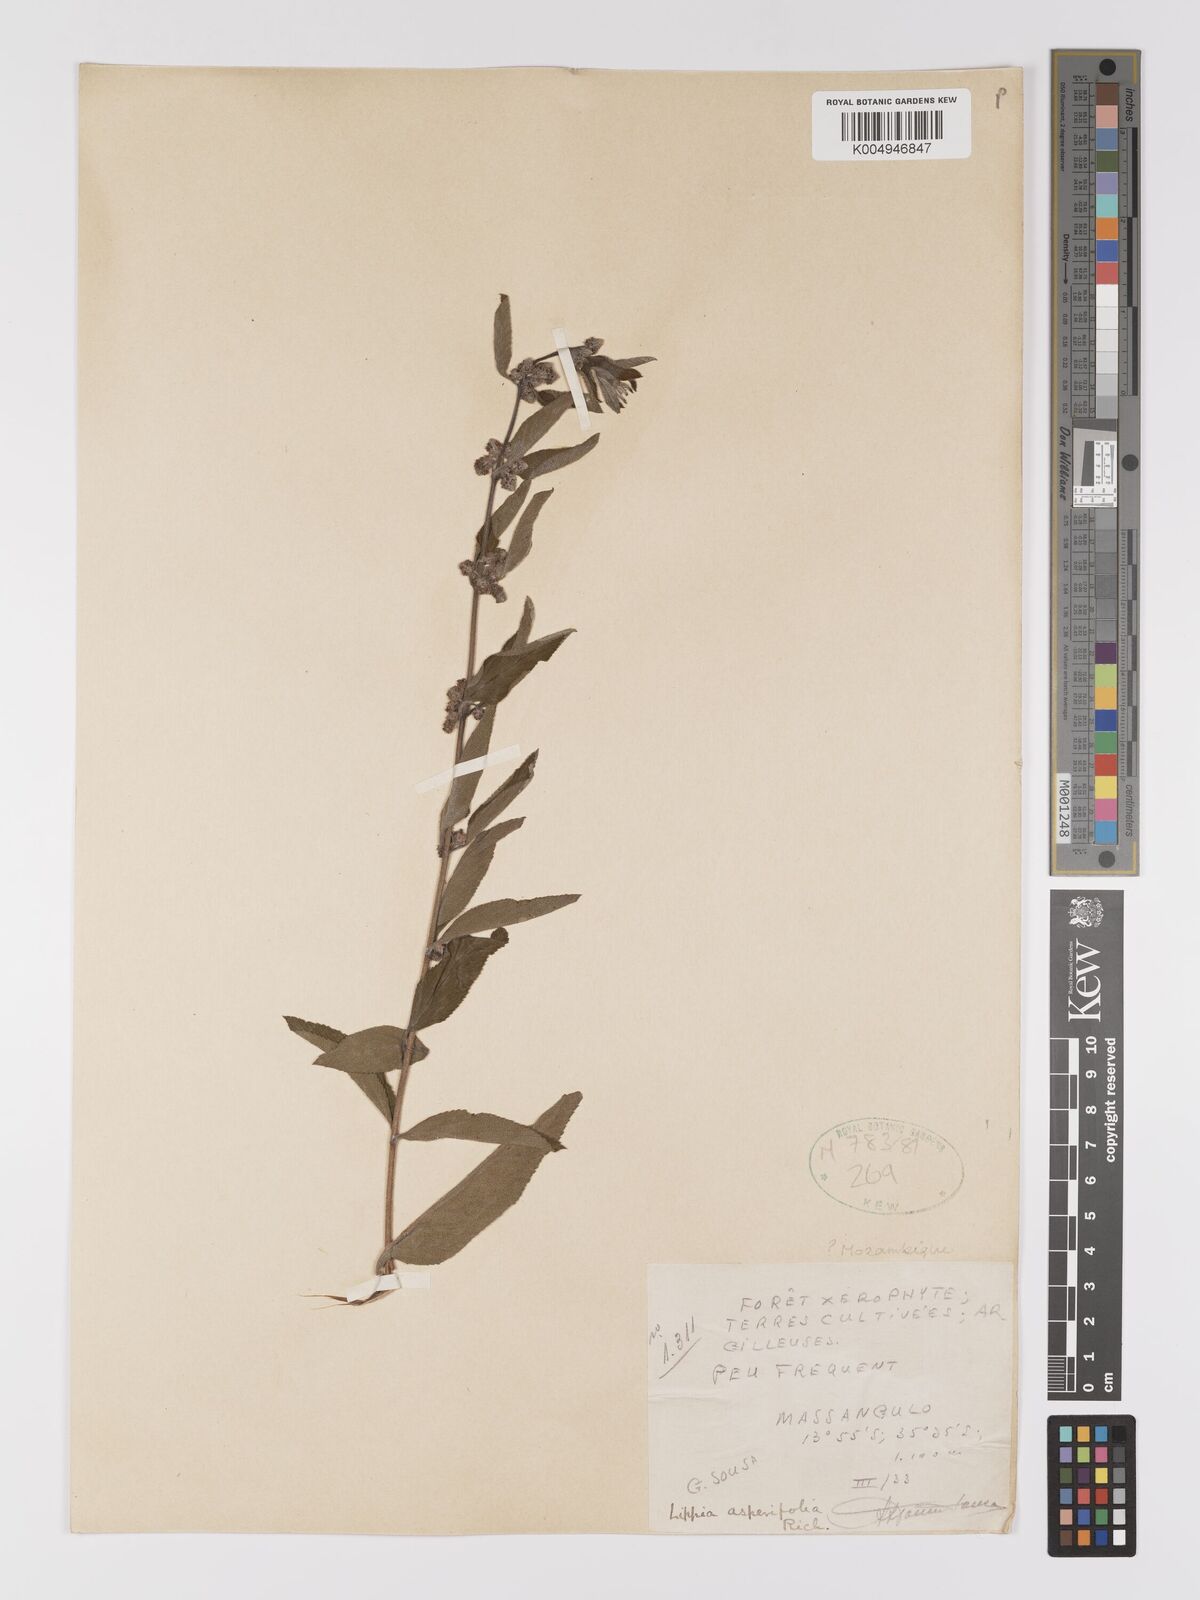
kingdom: Plantae
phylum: Tracheophyta
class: Magnoliopsida
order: Lamiales
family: Verbenaceae
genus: Lippia
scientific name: Lippia
